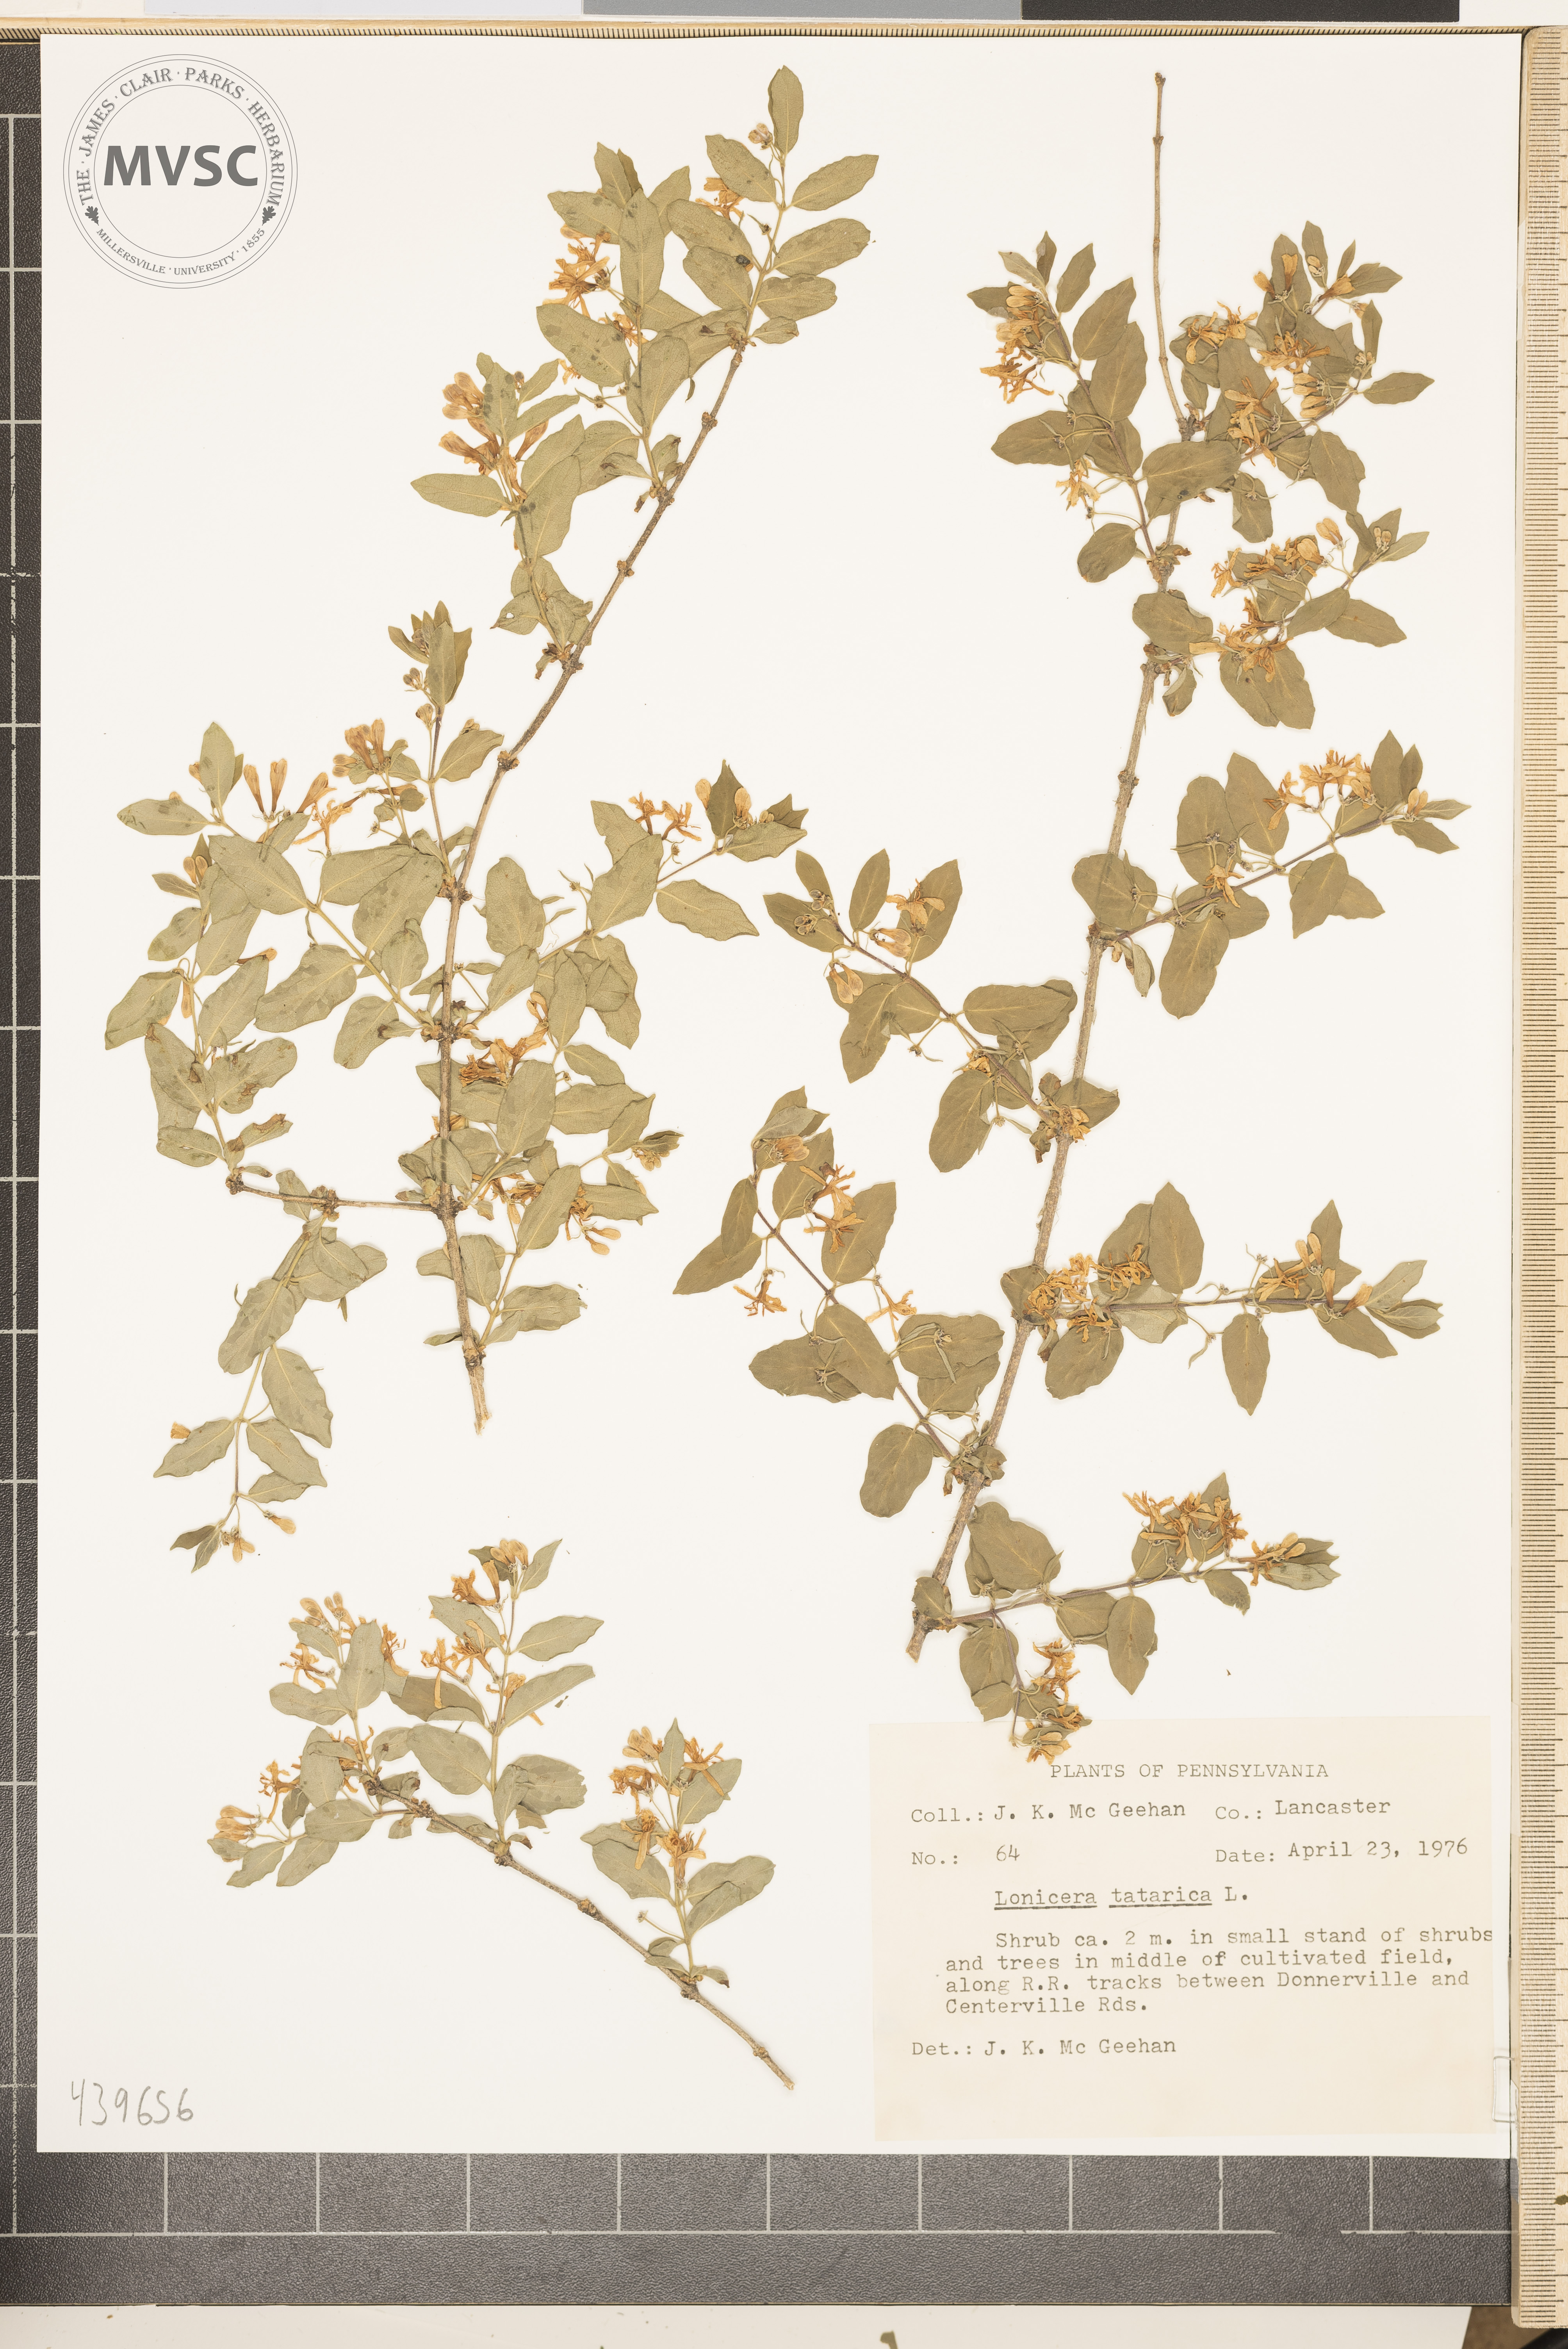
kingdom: Plantae
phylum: Tracheophyta
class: Magnoliopsida
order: Dipsacales
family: Caprifoliaceae
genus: Lonicera
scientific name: Lonicera morrowii
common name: Morrow's honeysuckle
